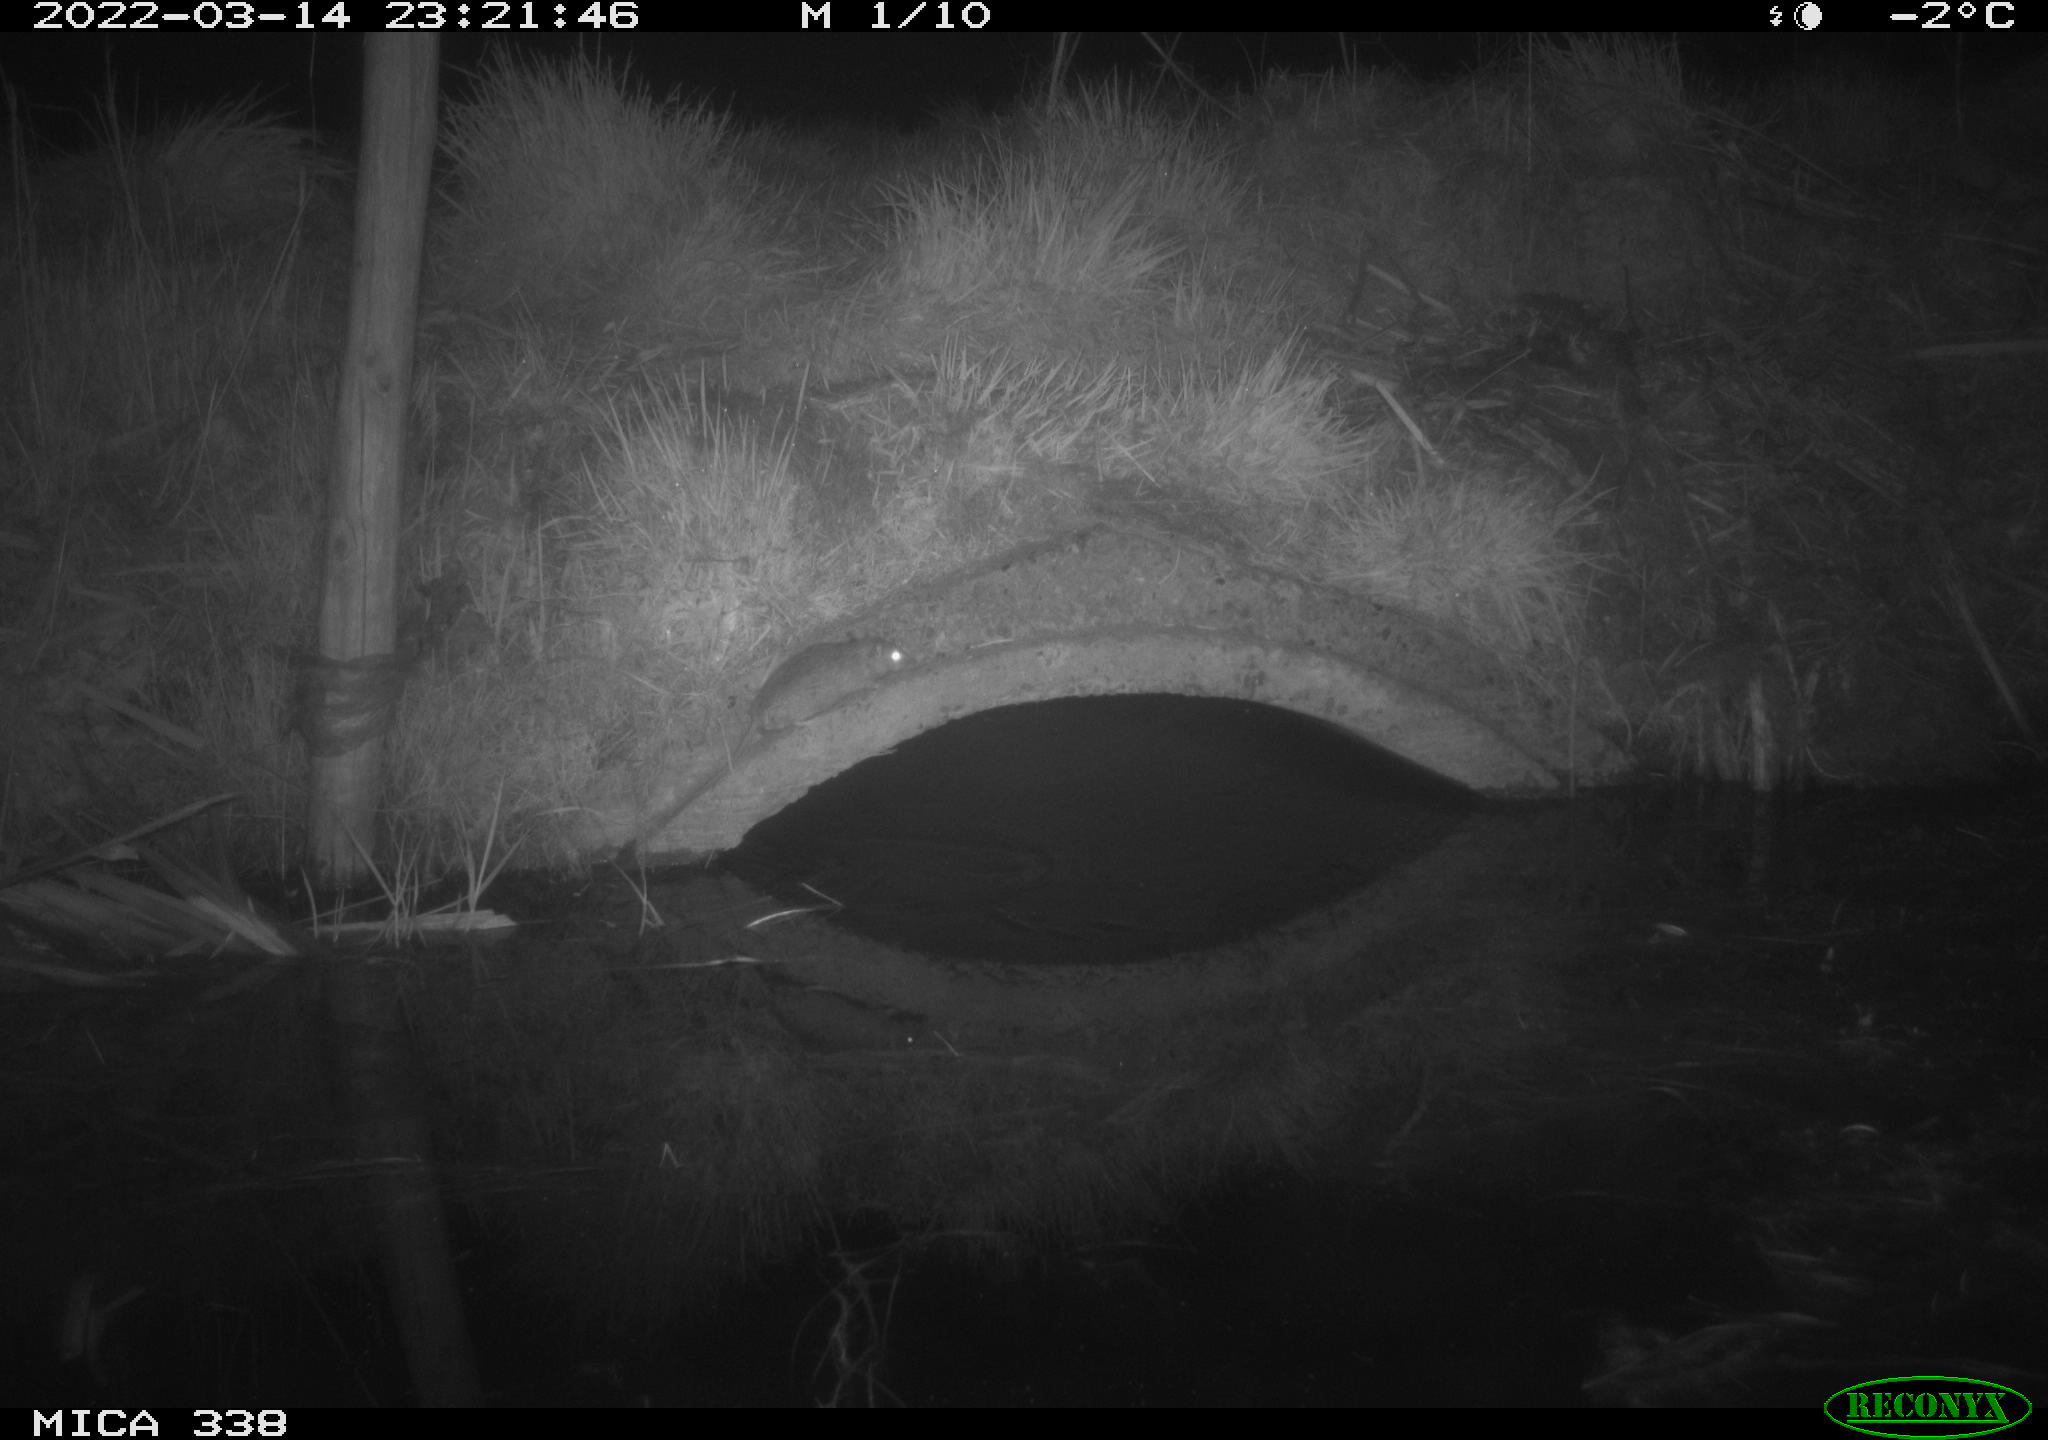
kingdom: Animalia
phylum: Chordata
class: Mammalia
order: Rodentia
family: Muridae
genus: Rattus
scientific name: Rattus norvegicus
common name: Brown rat
